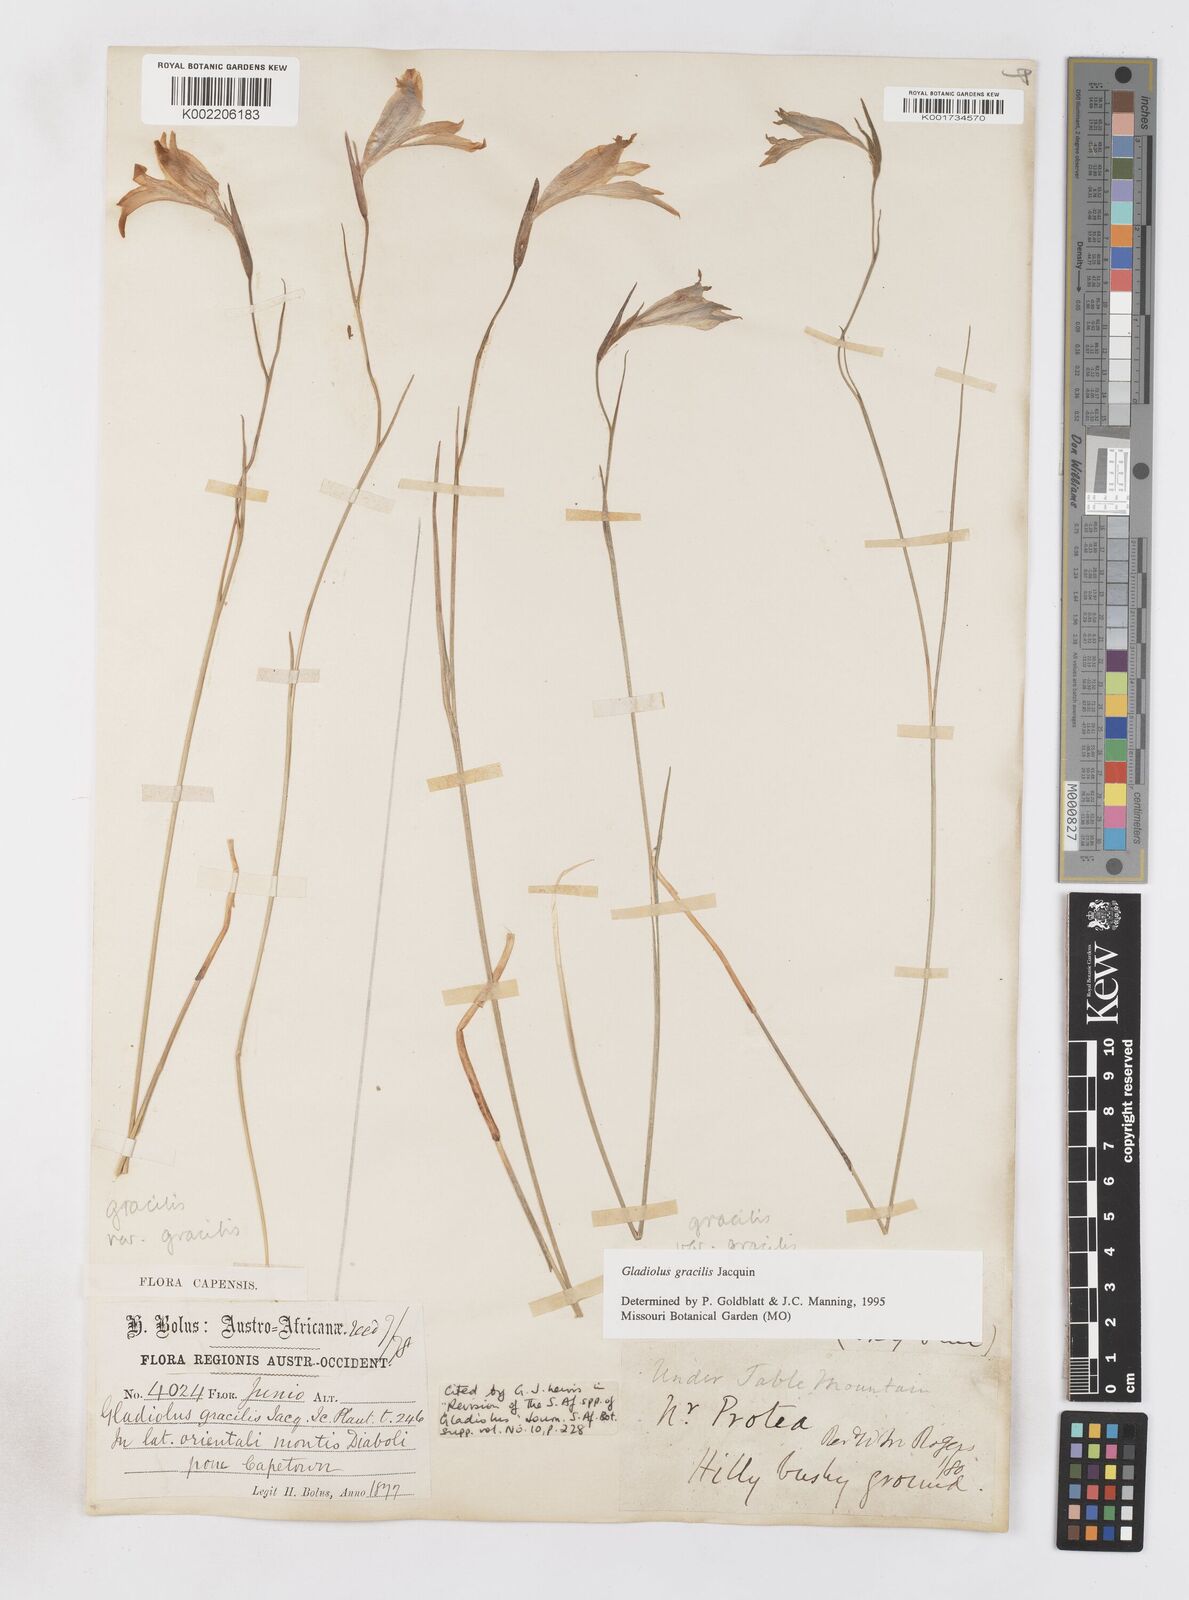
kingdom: Plantae
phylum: Tracheophyta
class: Liliopsida
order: Asparagales
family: Iridaceae
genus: Gladiolus
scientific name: Gladiolus gracilis
